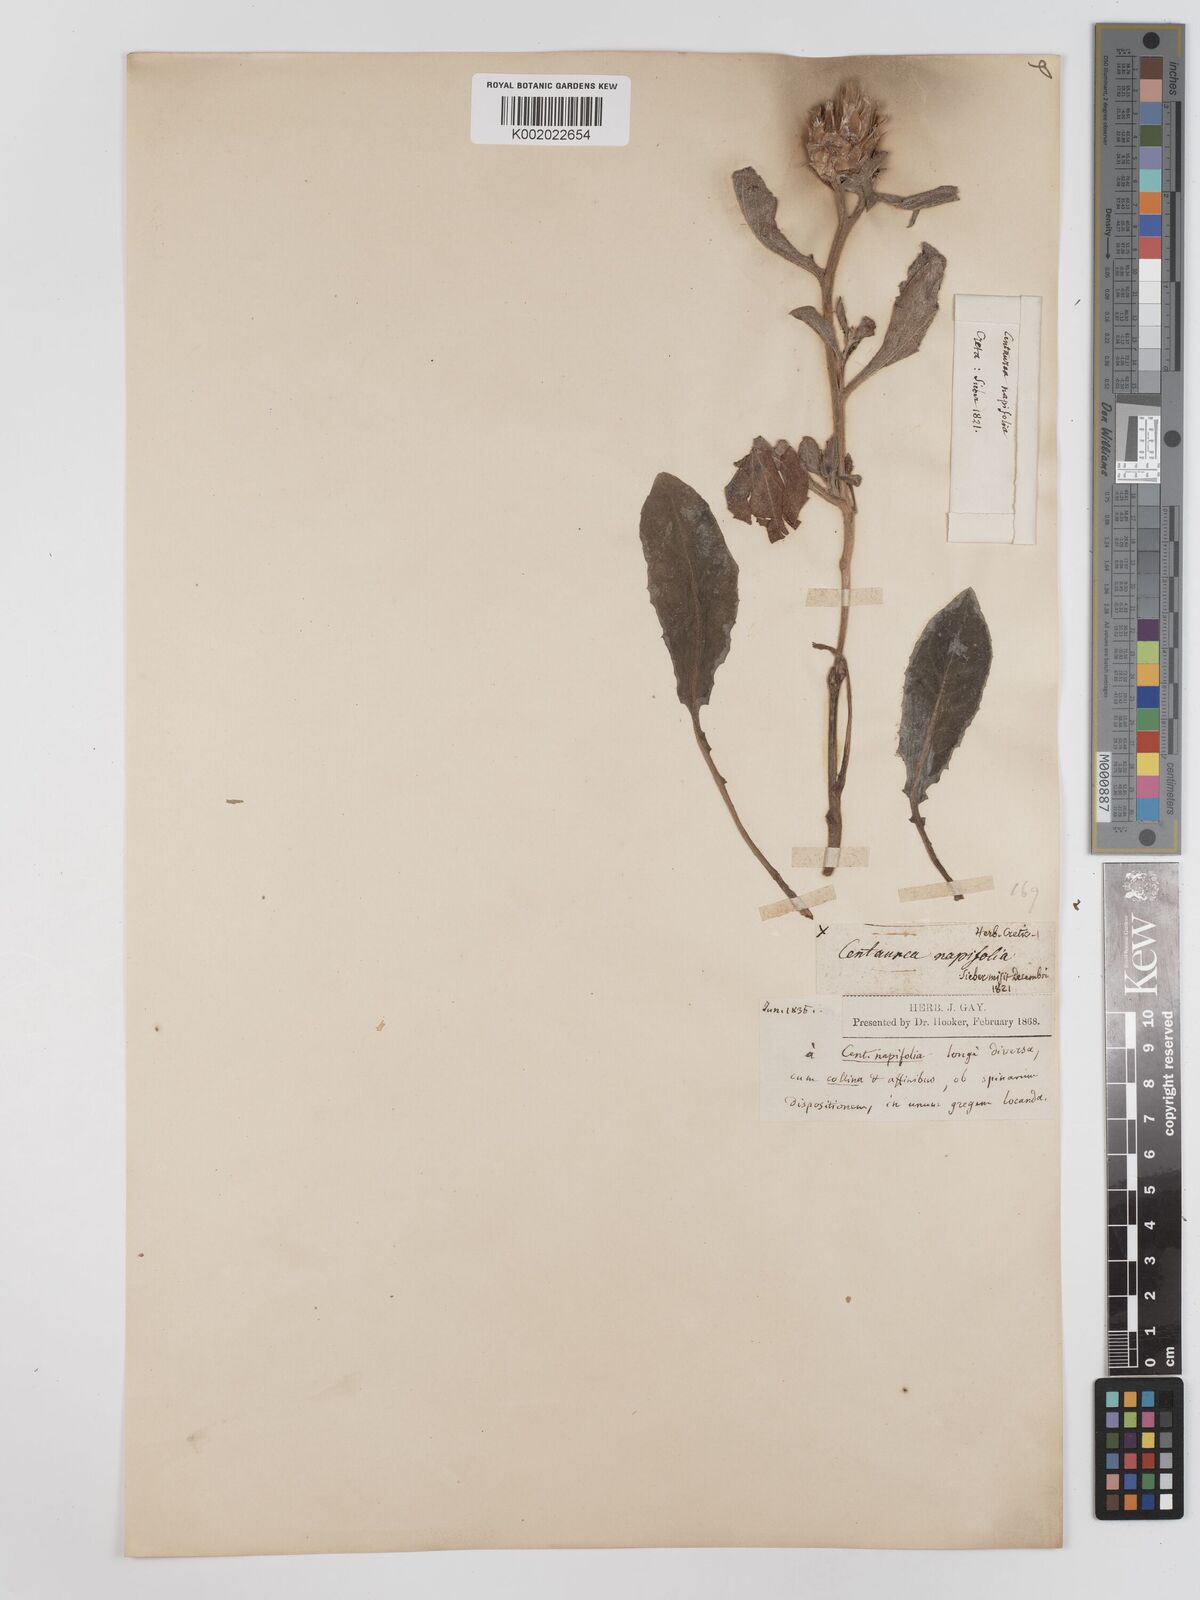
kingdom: Plantae
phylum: Tracheophyta
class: Magnoliopsida
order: Asterales
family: Asteraceae
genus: Centaurea
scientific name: Centaurea sicula
